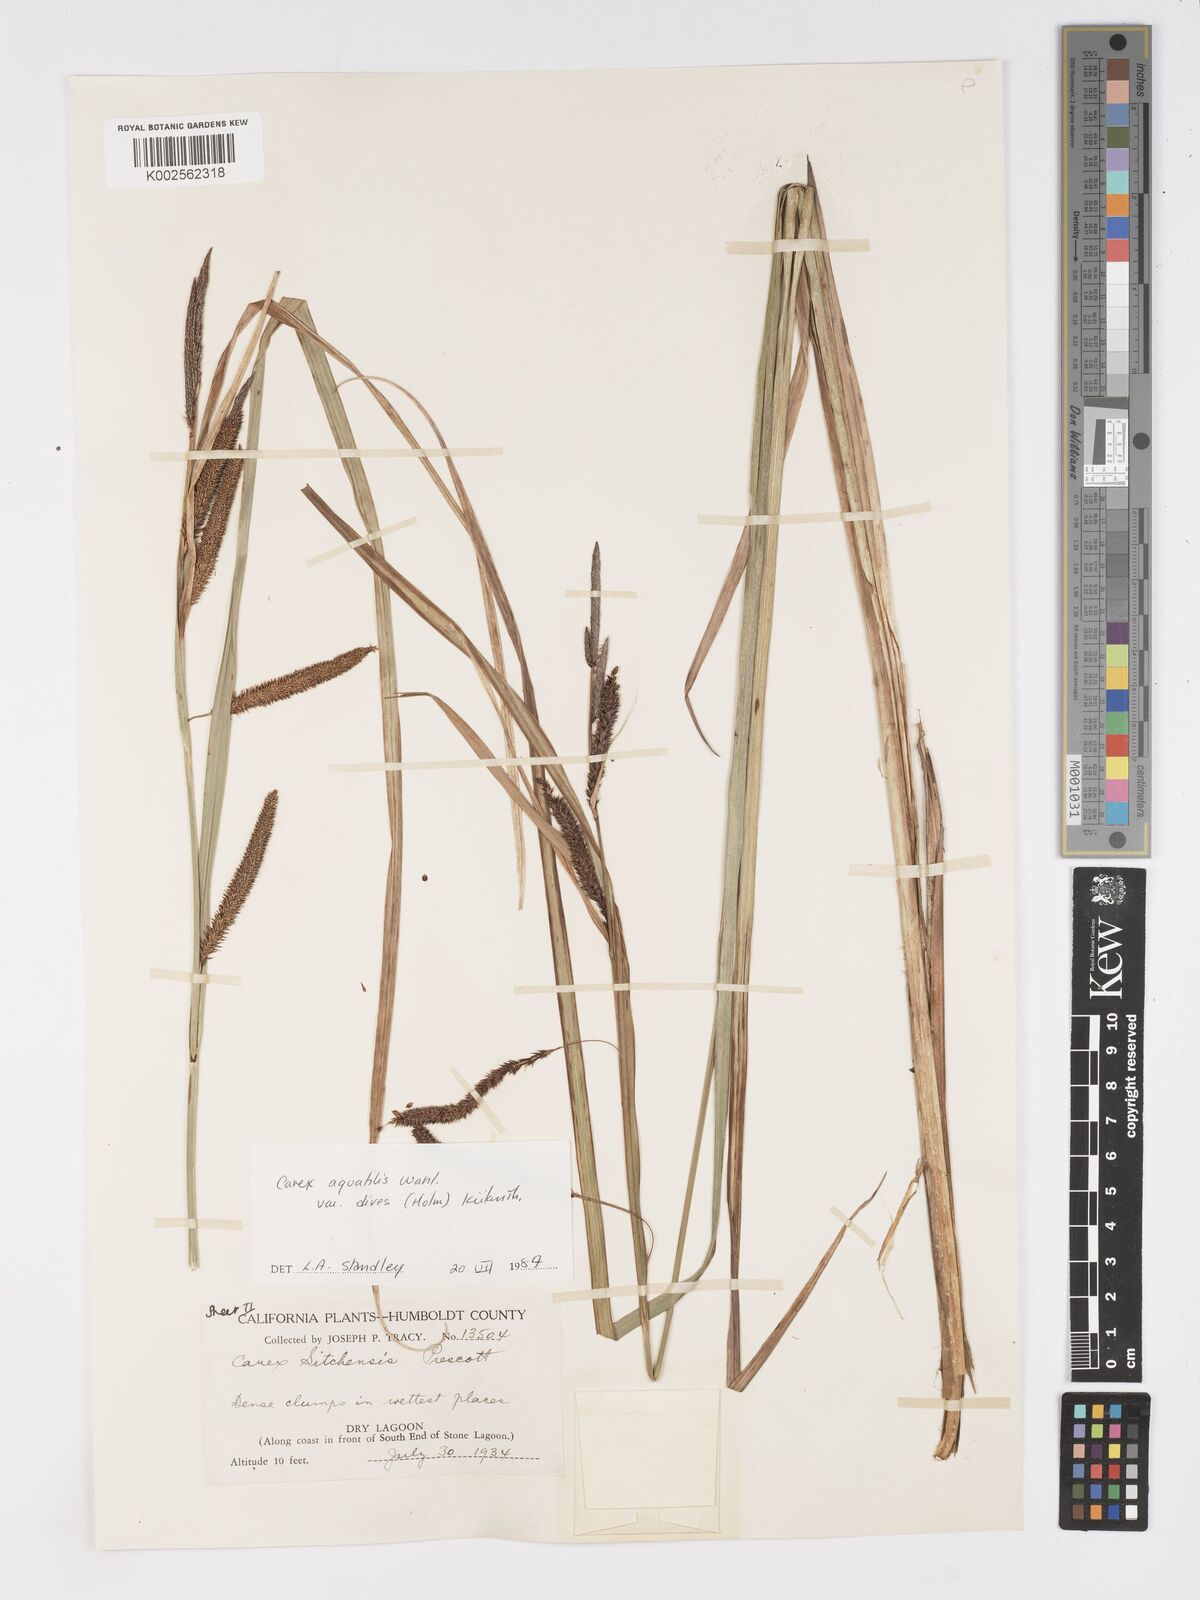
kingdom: Plantae
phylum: Tracheophyta
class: Liliopsida
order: Poales
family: Cyperaceae
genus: Carex
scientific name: Carex aquatilis
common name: Water sedge
